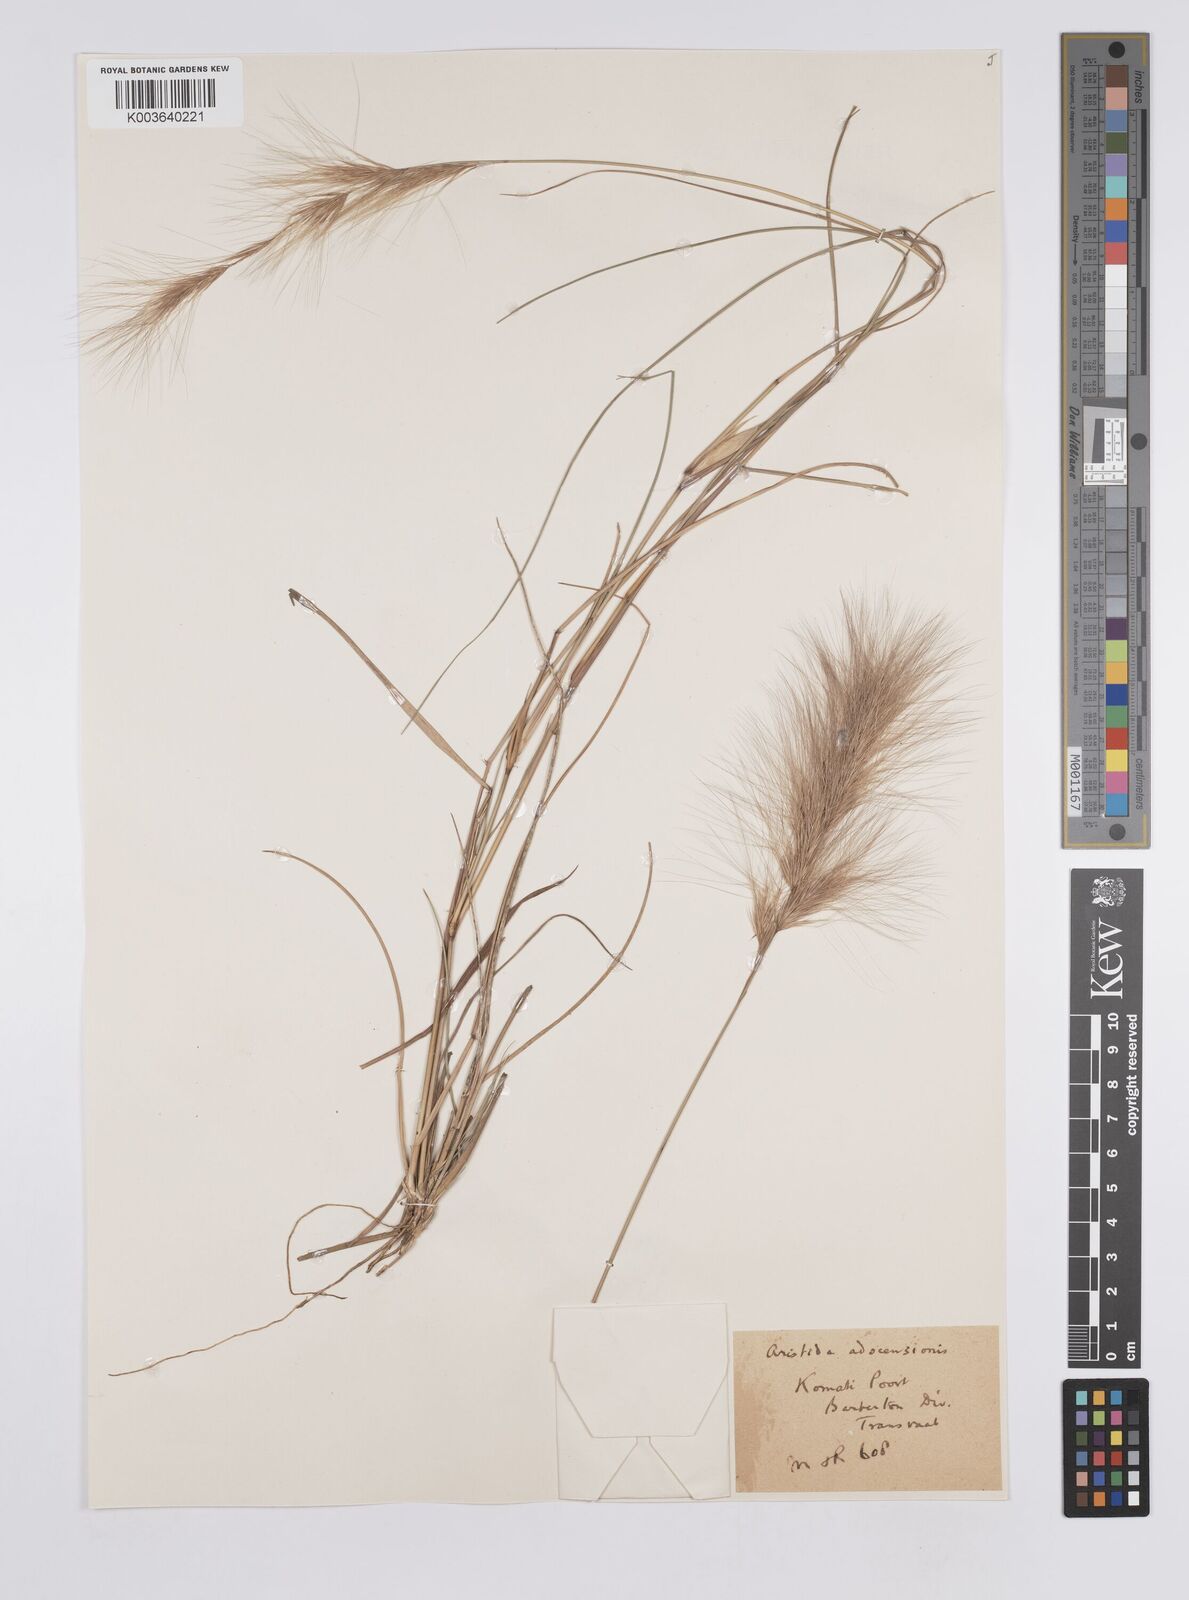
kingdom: Plantae
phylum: Tracheophyta
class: Liliopsida
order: Poales
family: Poaceae
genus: Aristida
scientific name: Aristida congesta
